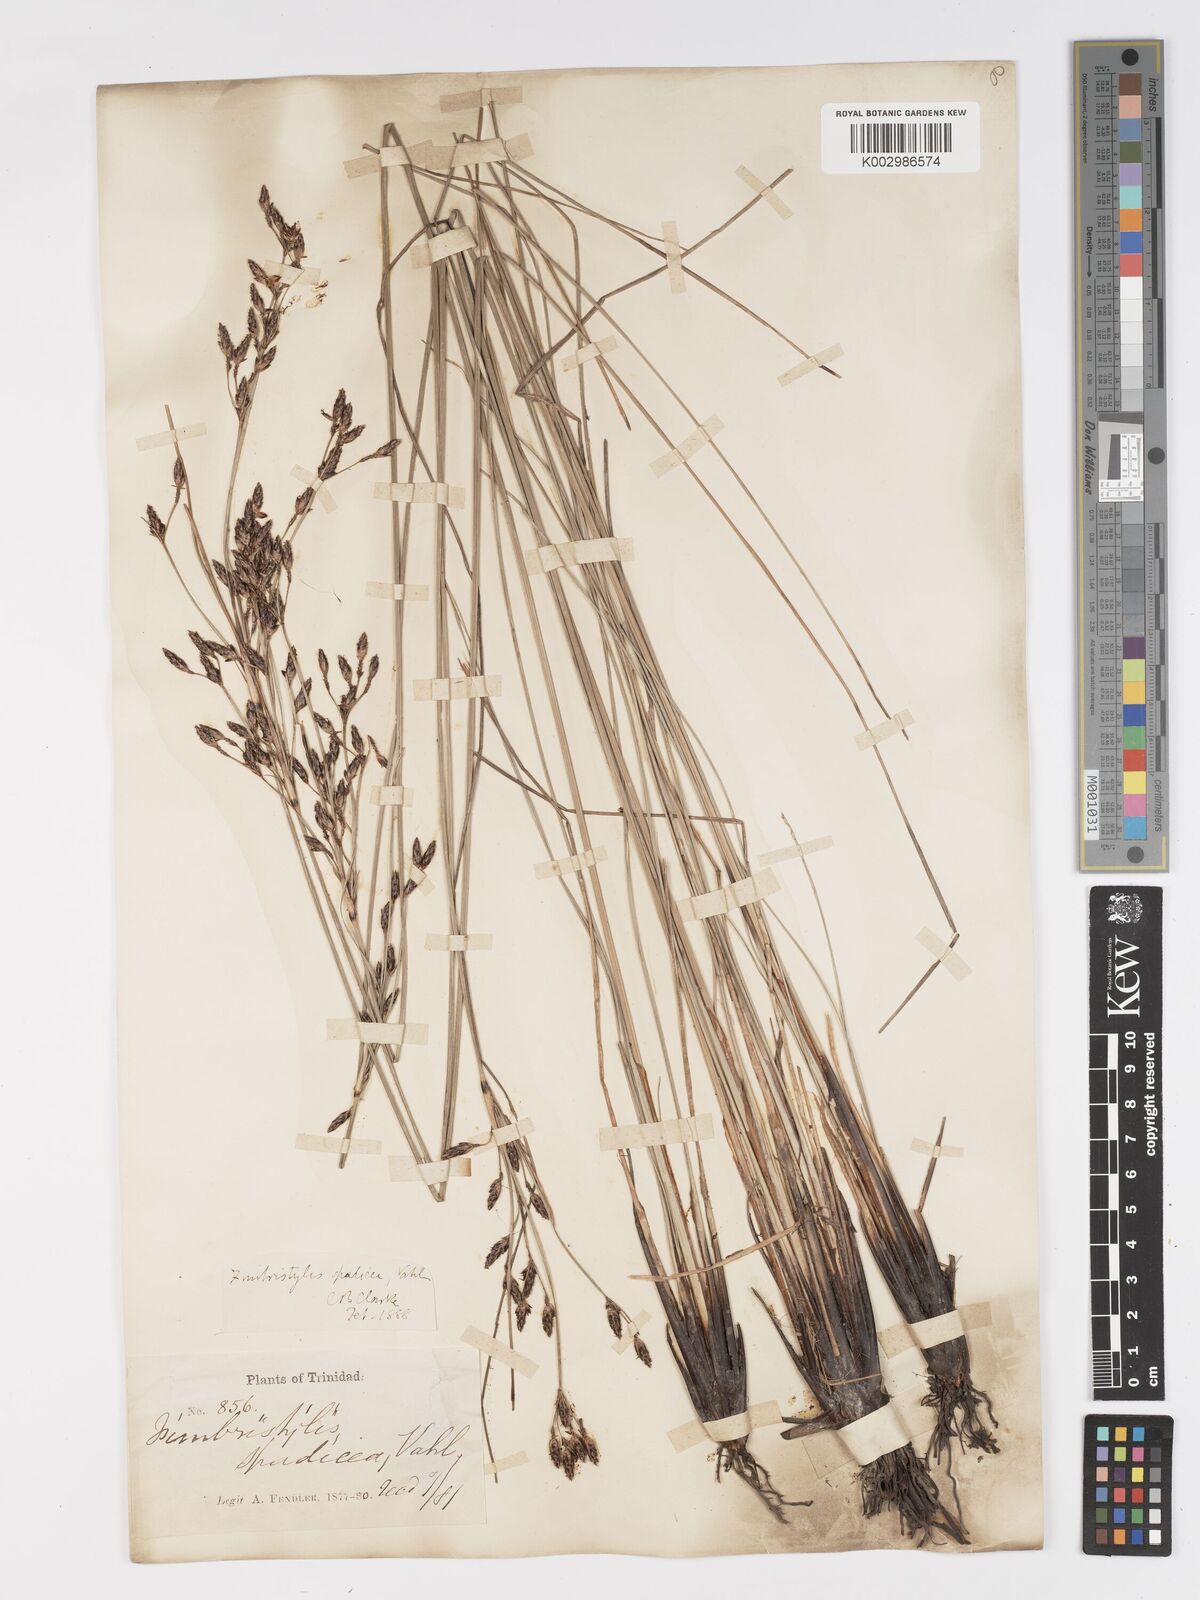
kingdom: Plantae
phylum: Tracheophyta
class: Liliopsida
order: Poales
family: Cyperaceae
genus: Fimbristylis
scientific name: Fimbristylis spadicea
